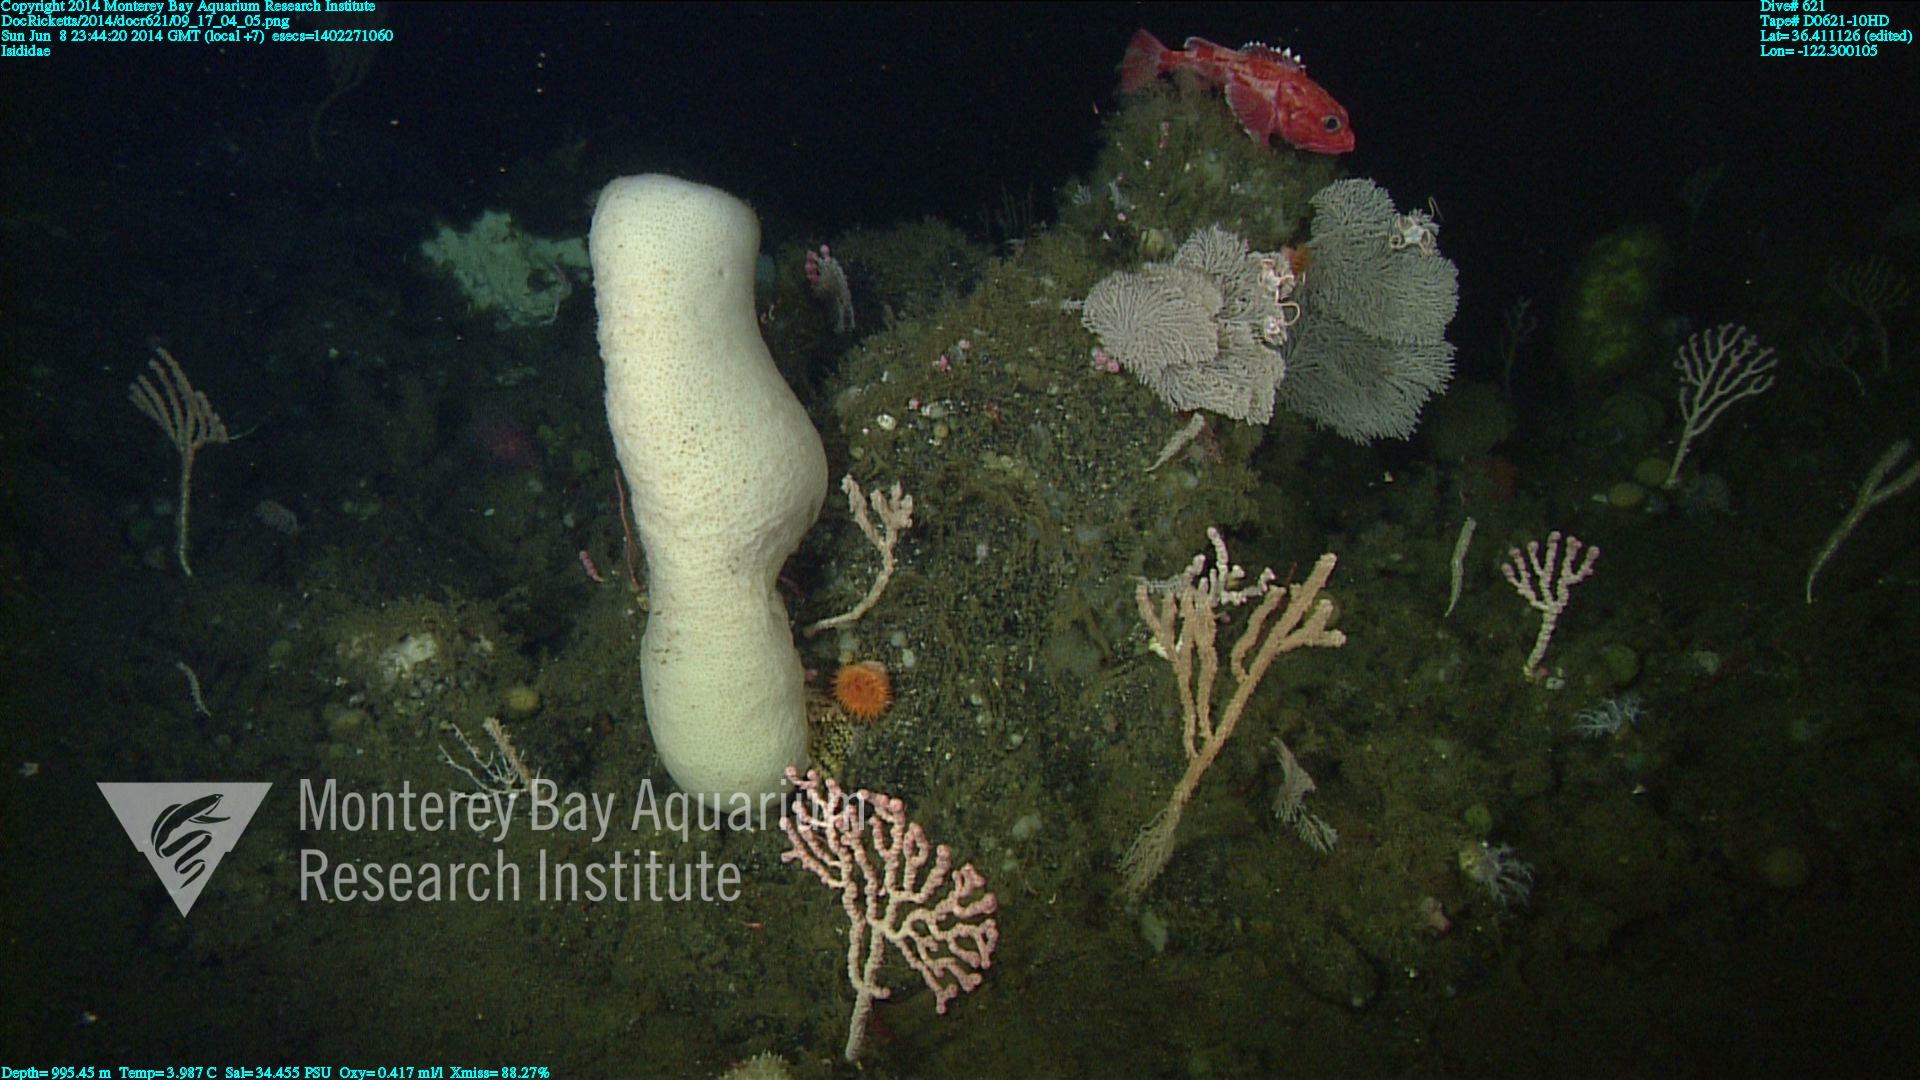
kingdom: Animalia
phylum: Cnidaria
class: Anthozoa
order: Scleralcyonacea
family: Keratoisididae
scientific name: Keratoisididae
